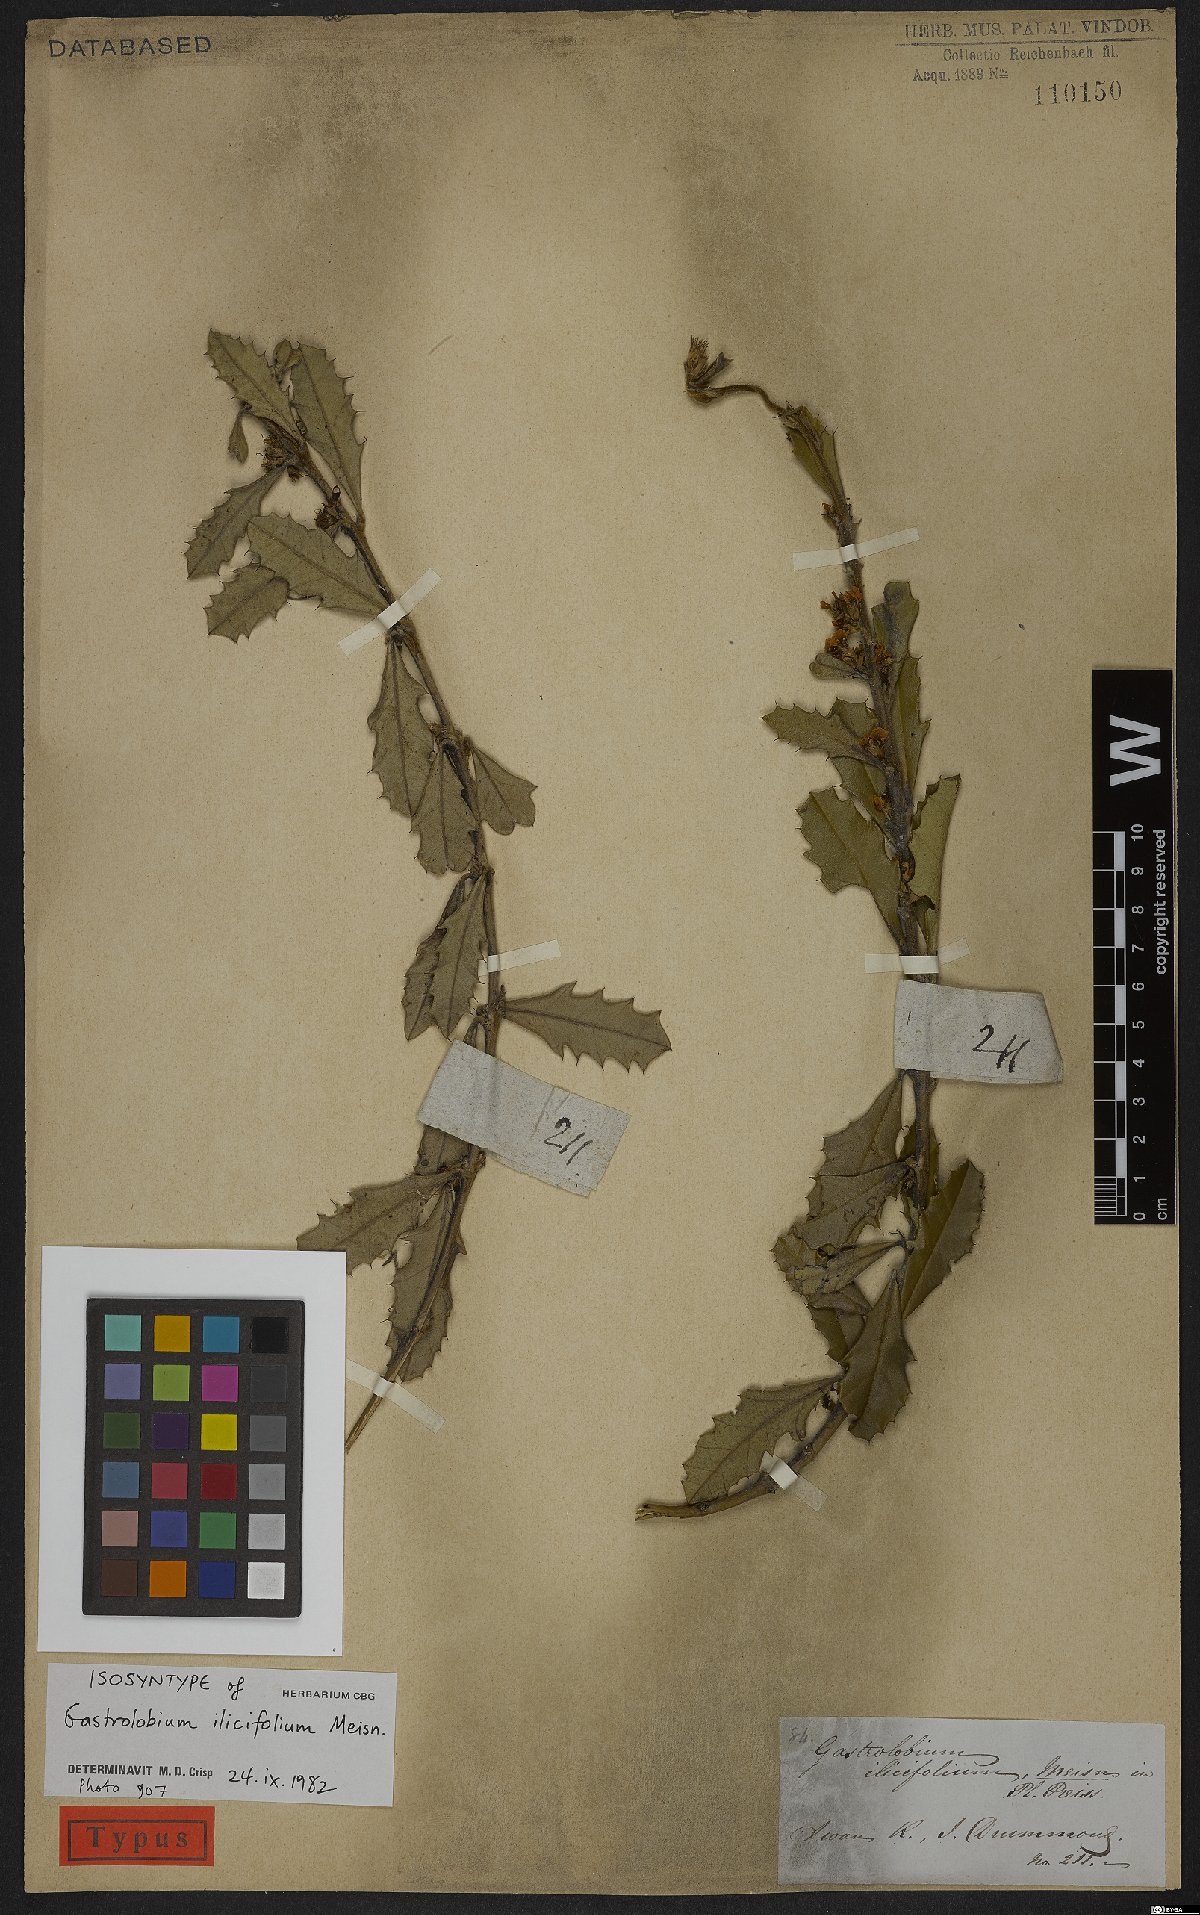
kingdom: Plantae
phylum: Tracheophyta
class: Magnoliopsida
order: Fabales
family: Fabaceae
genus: Gastrolobium
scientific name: Gastrolobium ilicifolium
